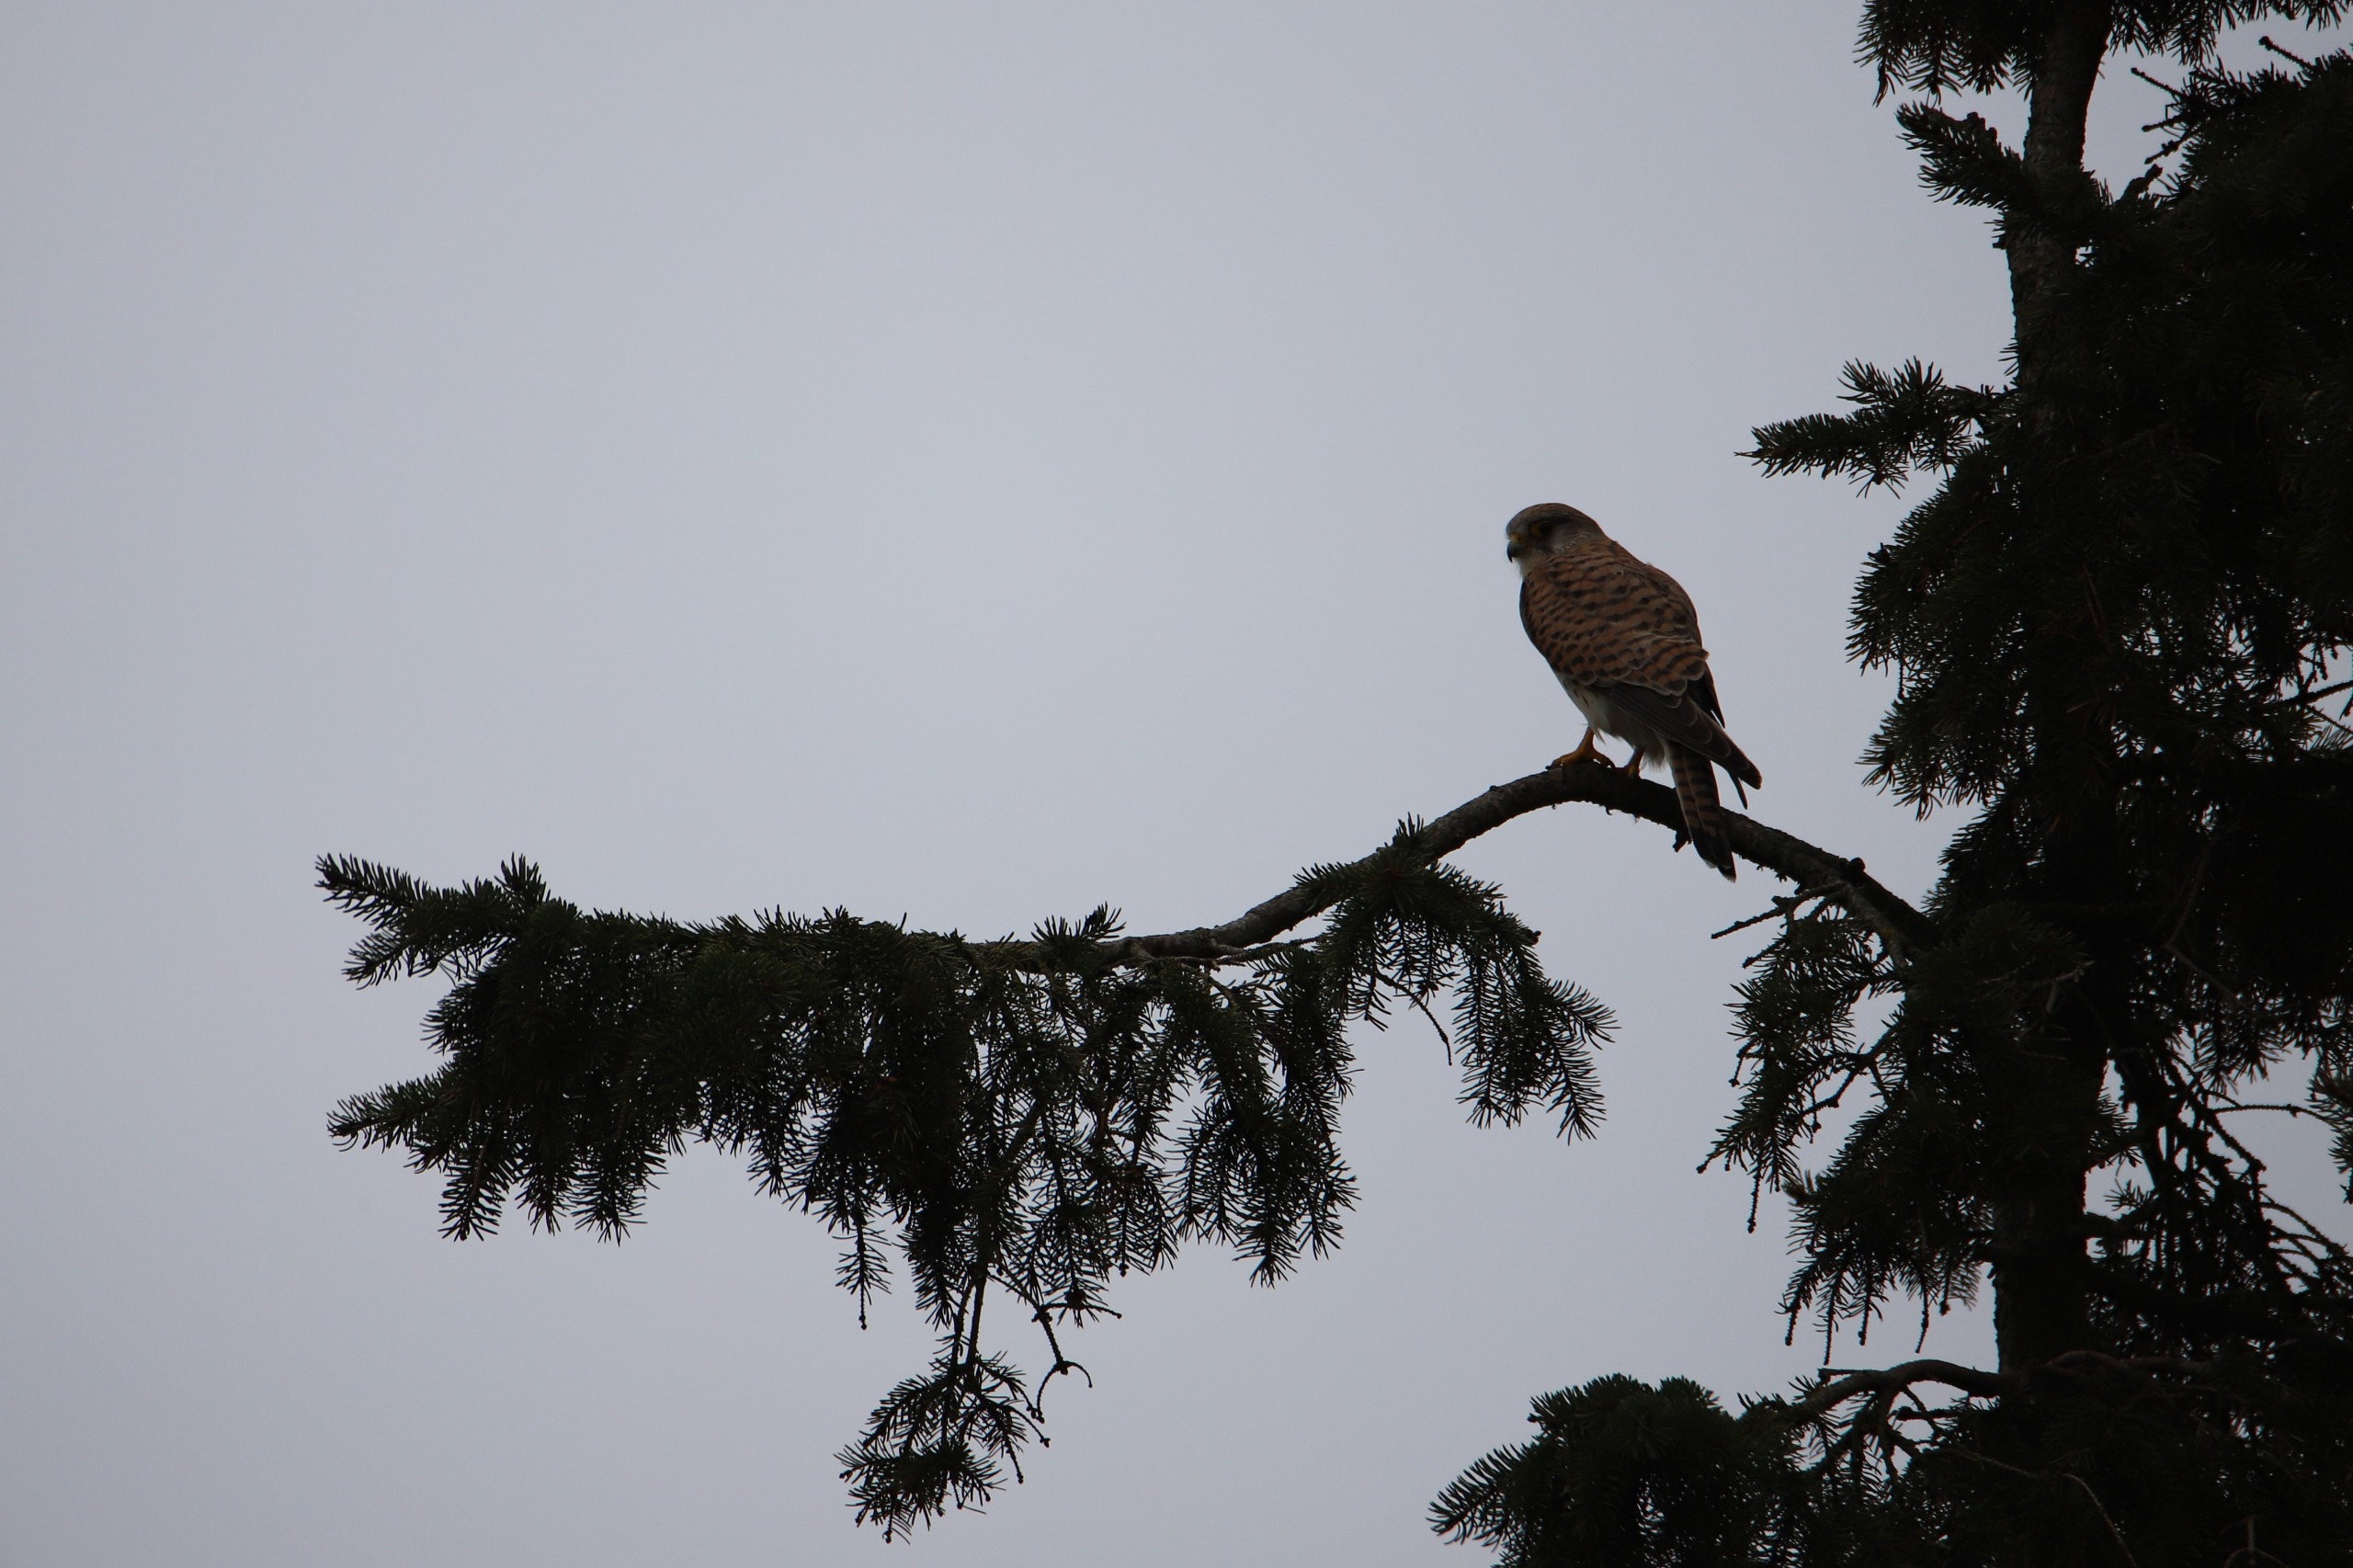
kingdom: Animalia
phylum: Chordata
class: Aves
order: Falconiformes
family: Falconidae
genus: Falco
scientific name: Falco tinnunculus
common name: Tårnfalk
